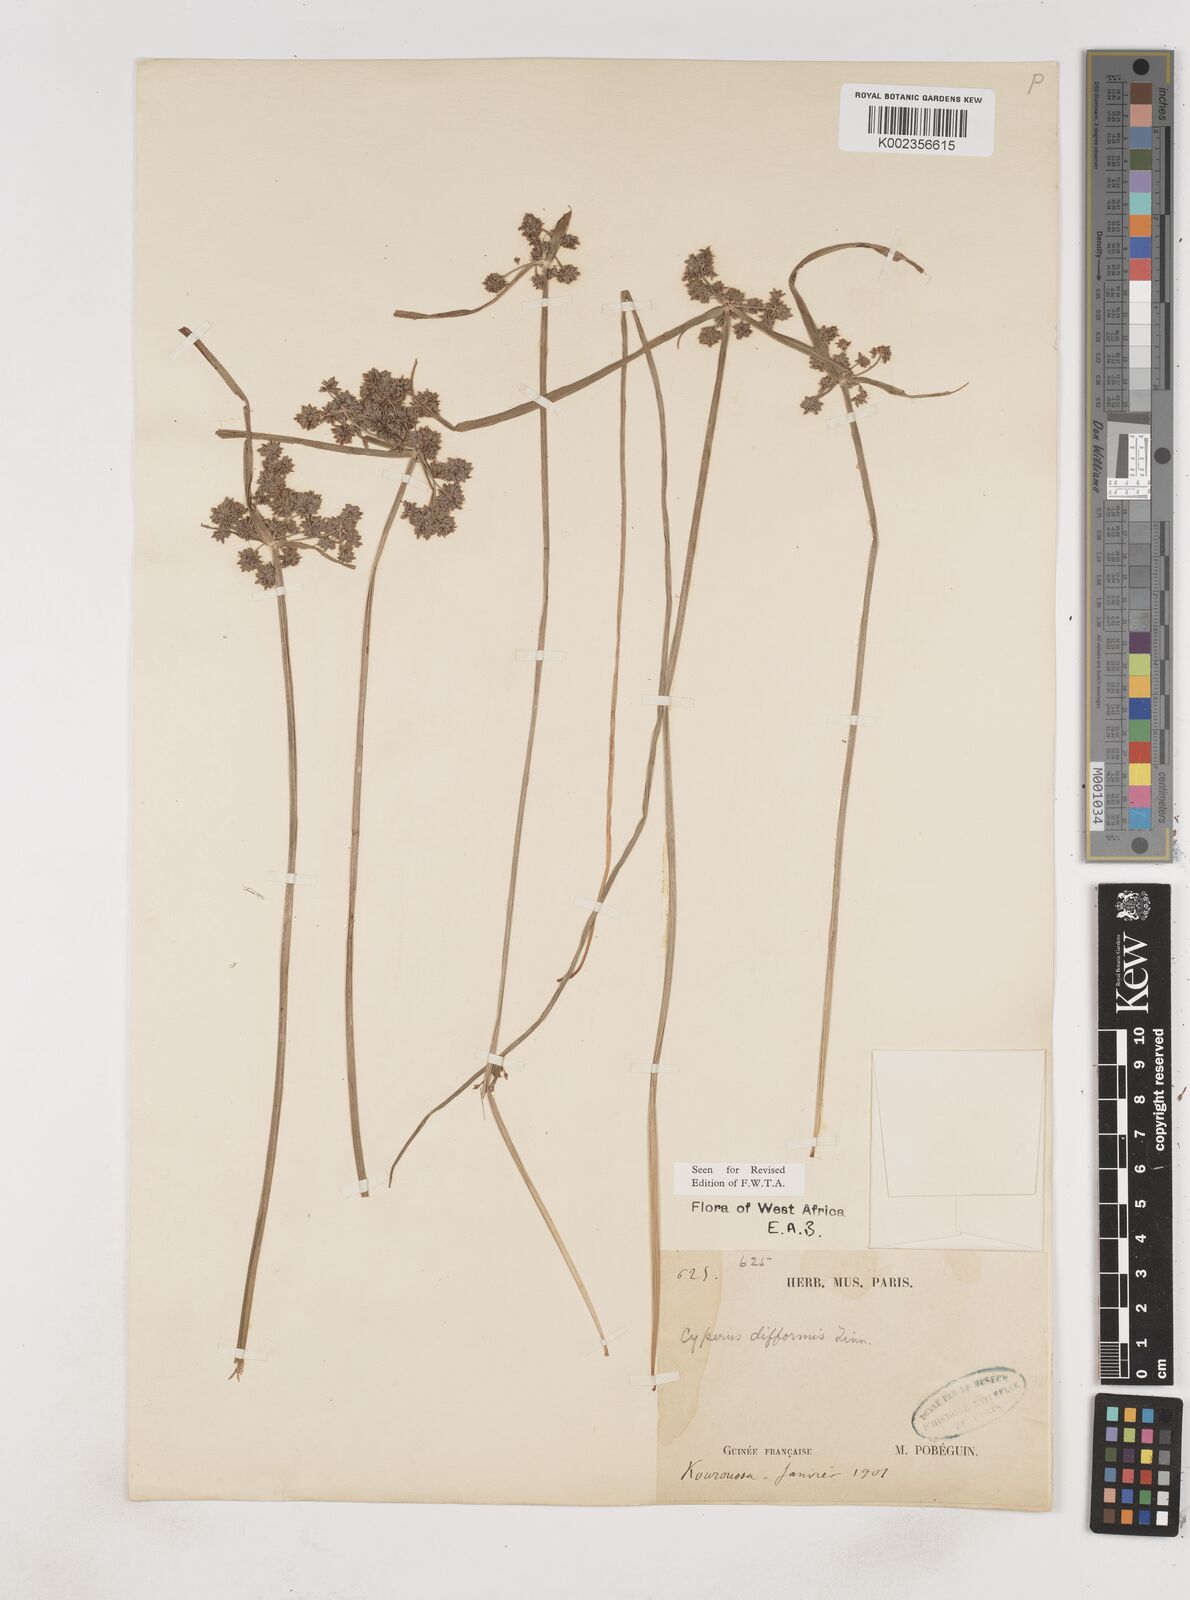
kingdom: Plantae
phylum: Tracheophyta
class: Liliopsida
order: Poales
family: Cyperaceae
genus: Cyperus
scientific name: Cyperus difformis
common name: Variable flatsedge
